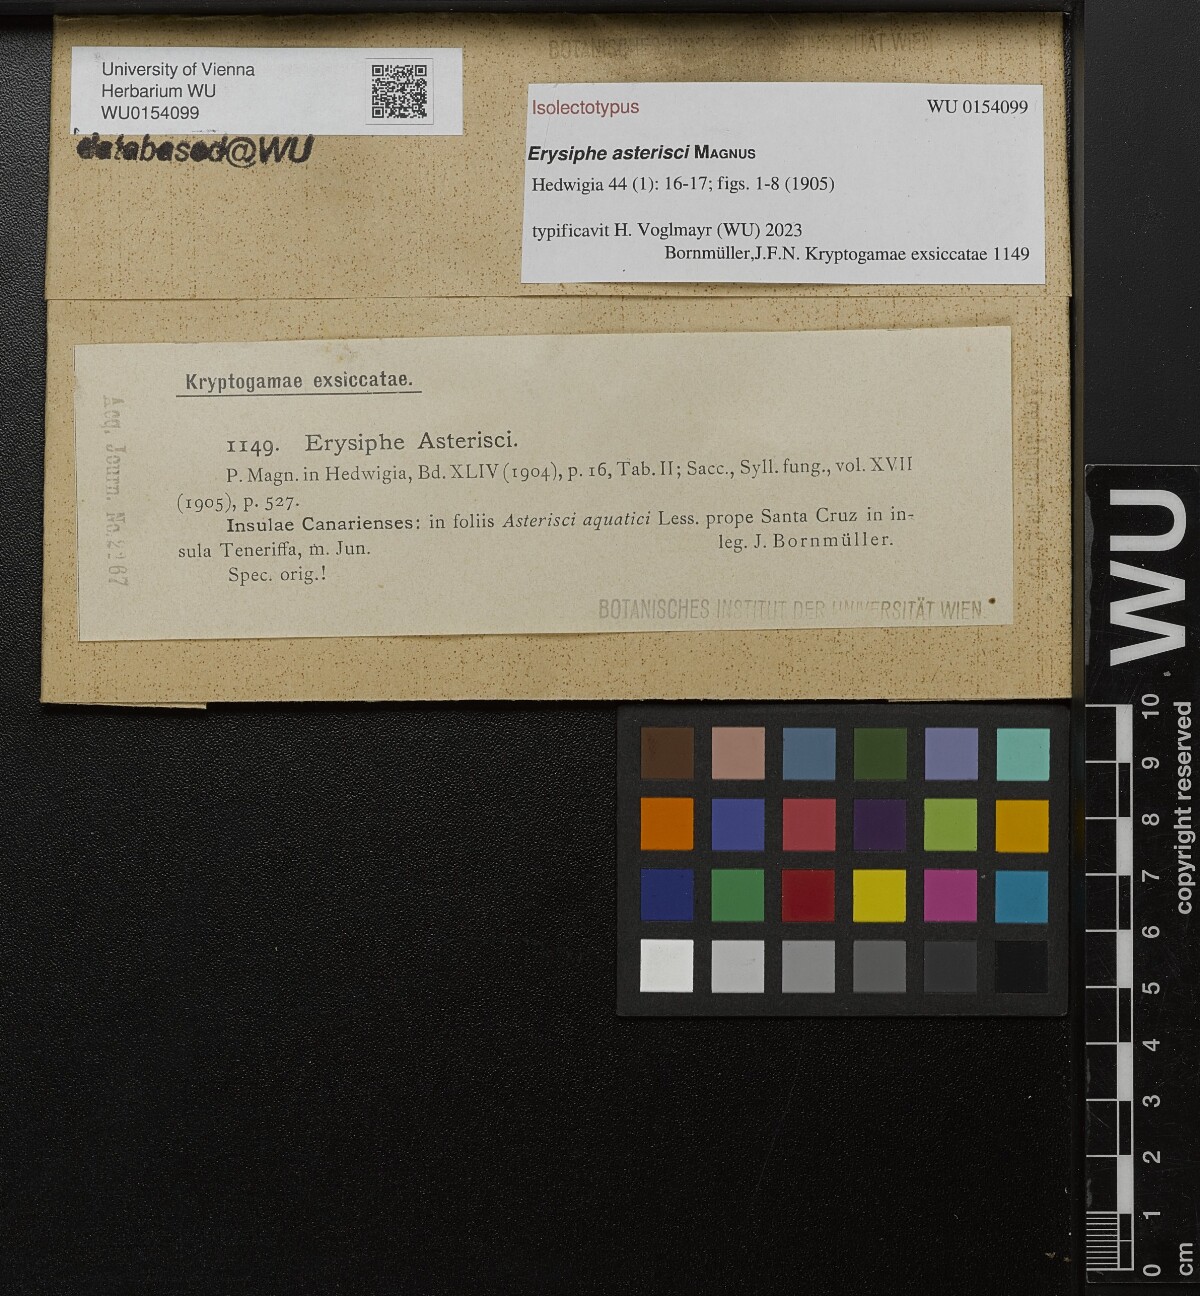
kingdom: Fungi
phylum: Ascomycota
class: Leotiomycetes
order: Helotiales
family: Erysiphaceae
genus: Leveillula
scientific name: Leveillula asterisci
